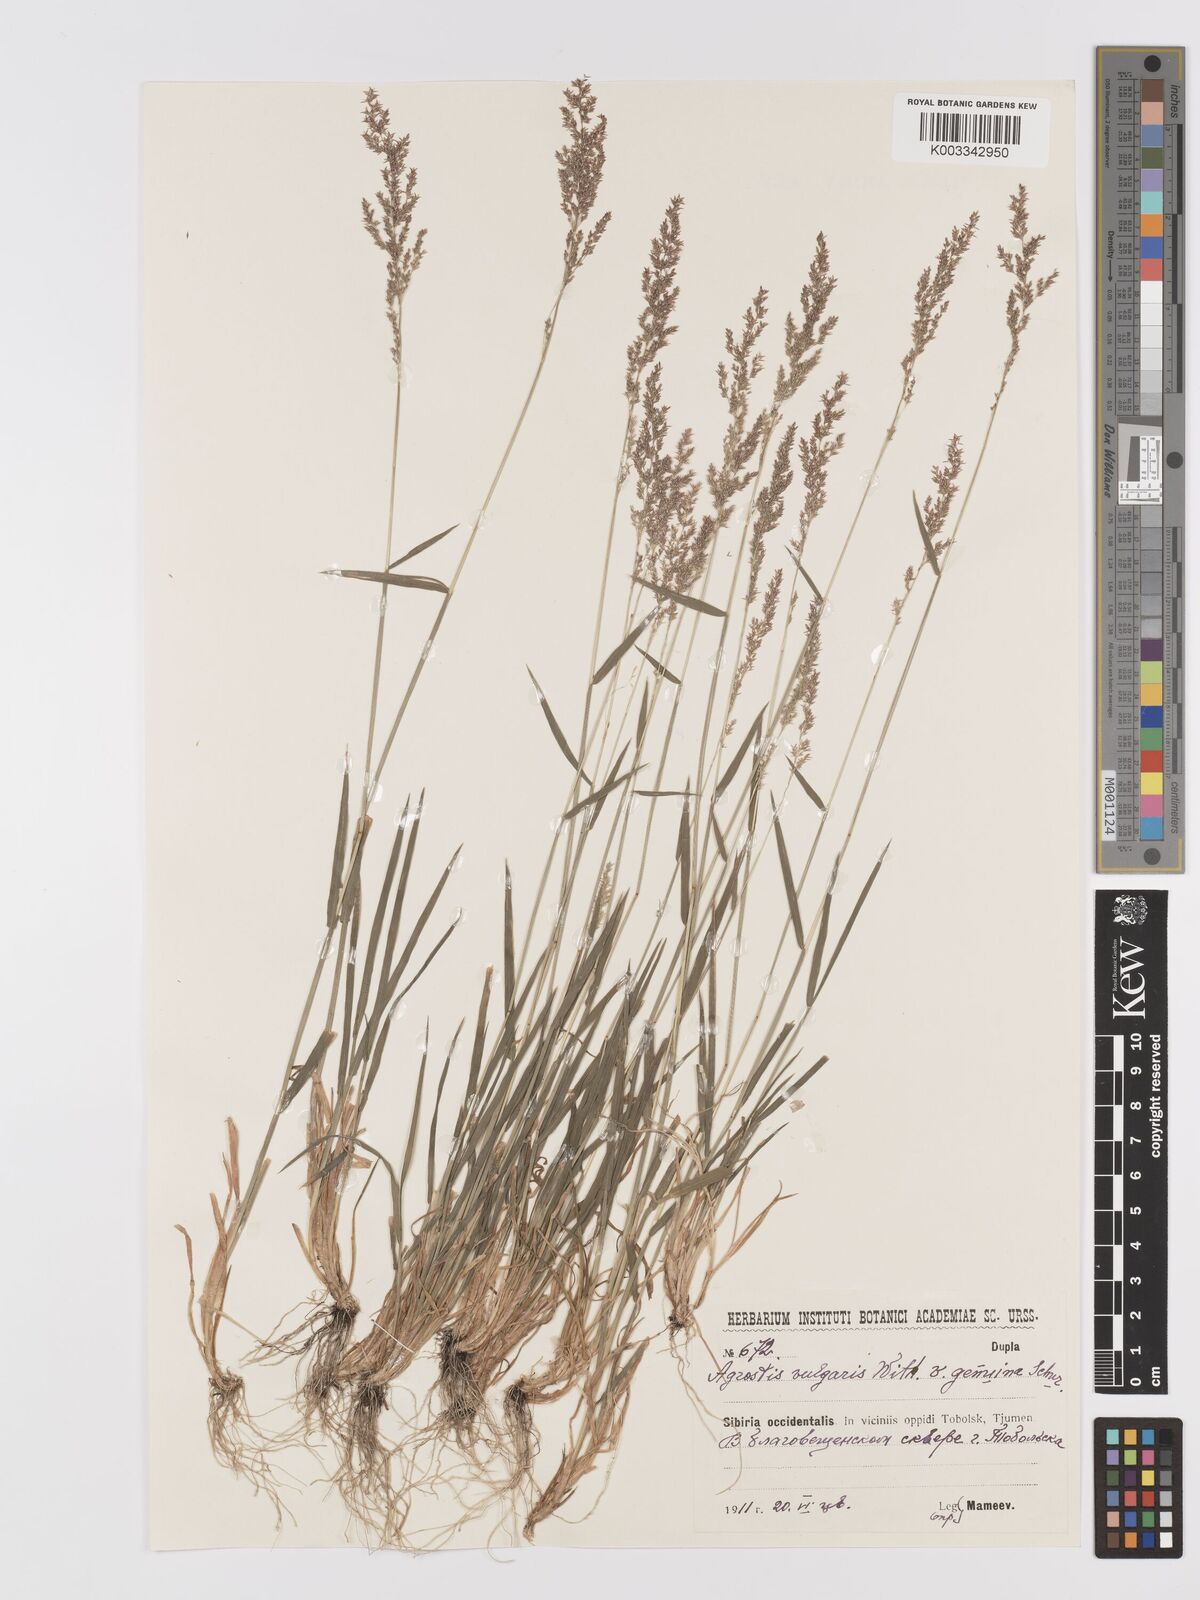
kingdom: Plantae
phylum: Tracheophyta
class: Liliopsida
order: Poales
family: Poaceae
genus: Agrostis
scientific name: Agrostis capillaris
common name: Colonial bentgrass
